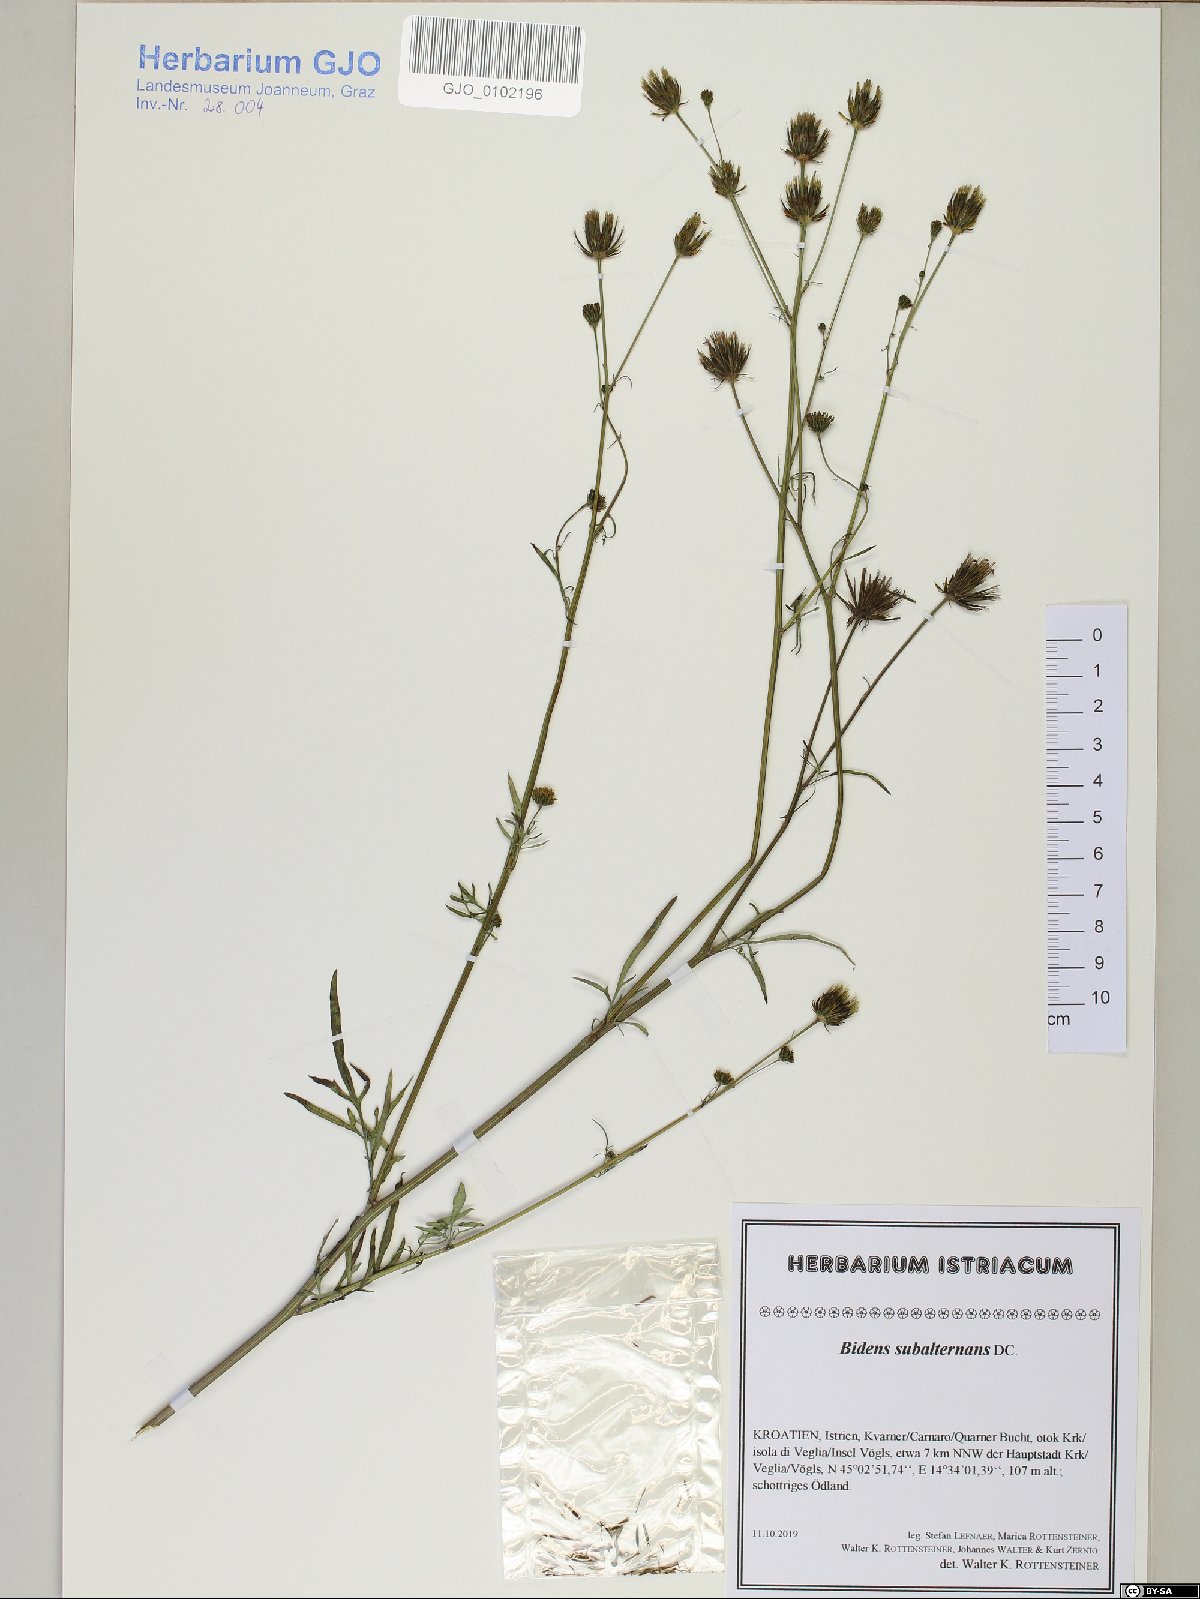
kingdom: Plantae
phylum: Tracheophyta
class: Magnoliopsida
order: Asterales
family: Asteraceae
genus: Bidens
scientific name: Bidens subalternans
